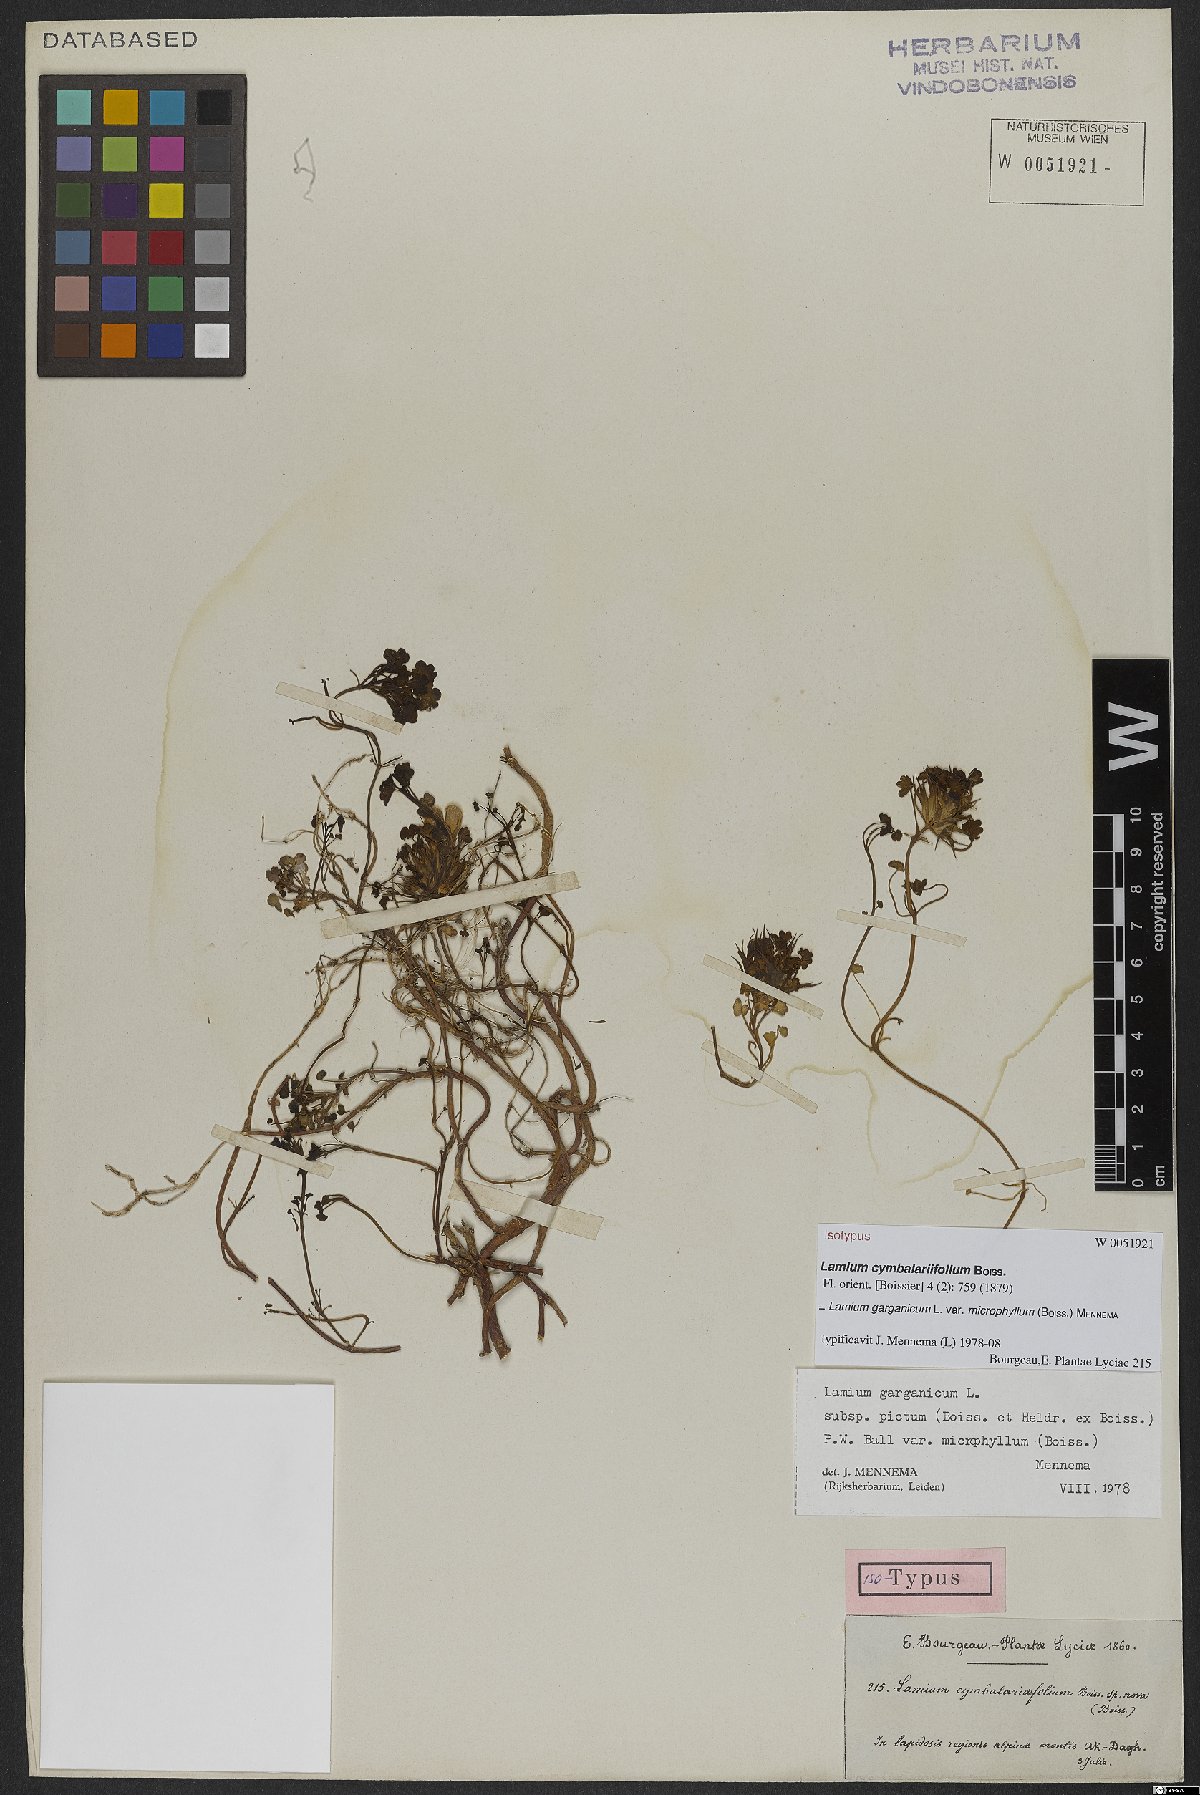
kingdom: Plantae
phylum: Tracheophyta
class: Magnoliopsida
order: Lamiales
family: Lamiaceae
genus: Lamium
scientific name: Lamium garganicum
